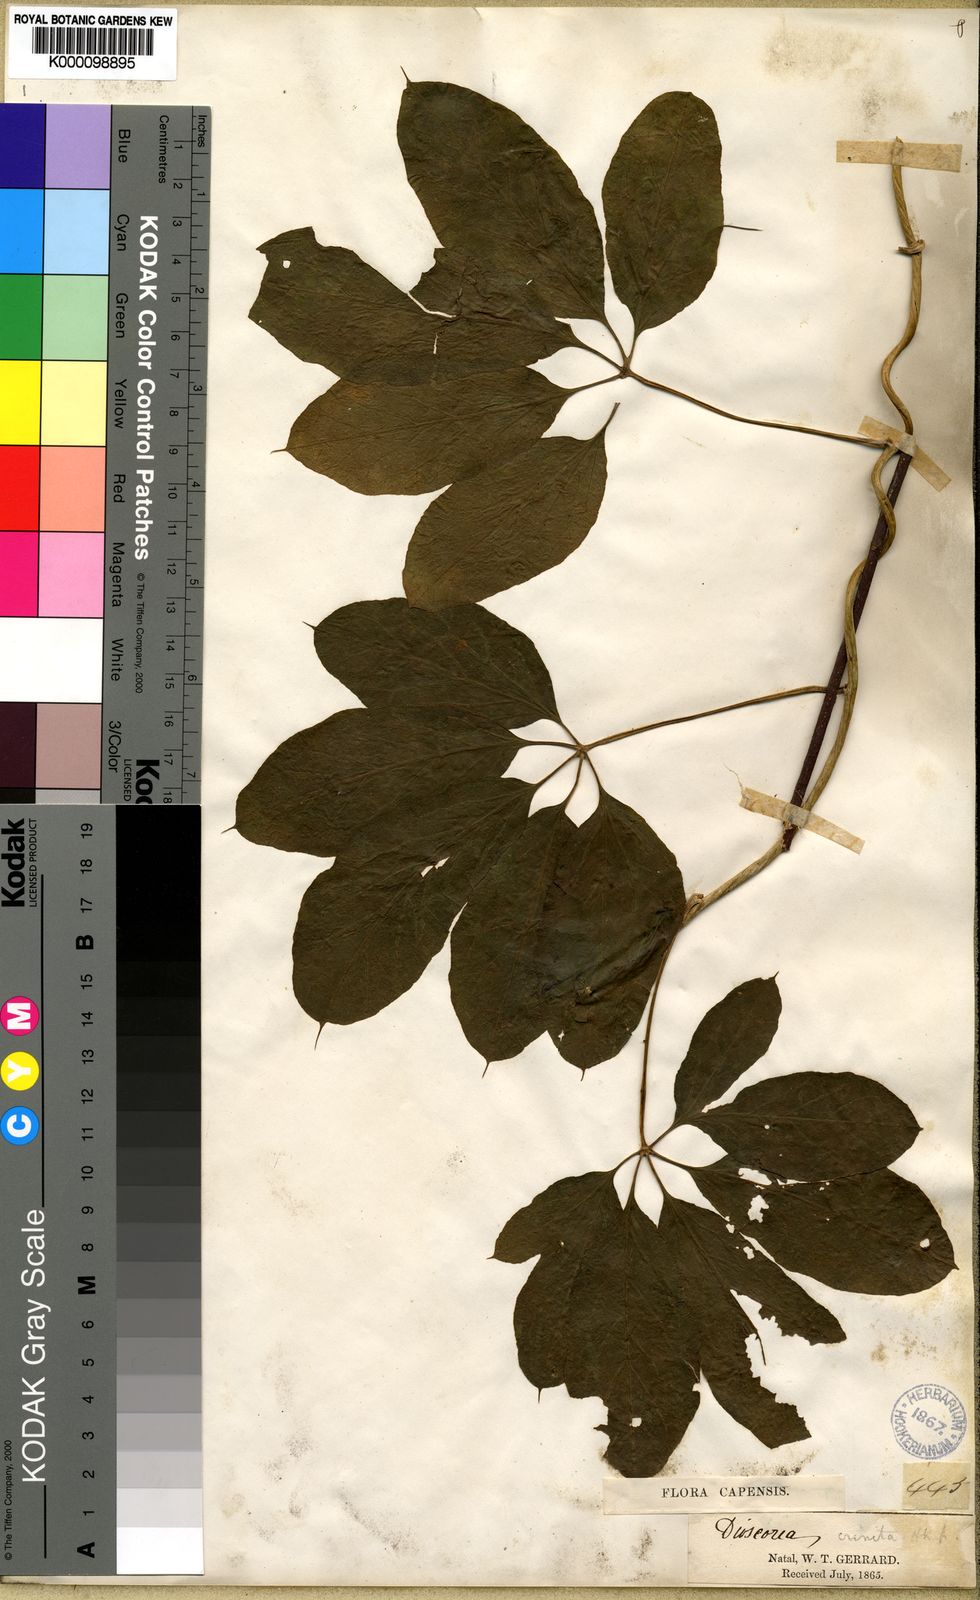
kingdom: Plantae
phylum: Tracheophyta
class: Liliopsida
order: Dioscoreales
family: Dioscoreaceae
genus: Dioscorea
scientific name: Dioscorea quartiniana
